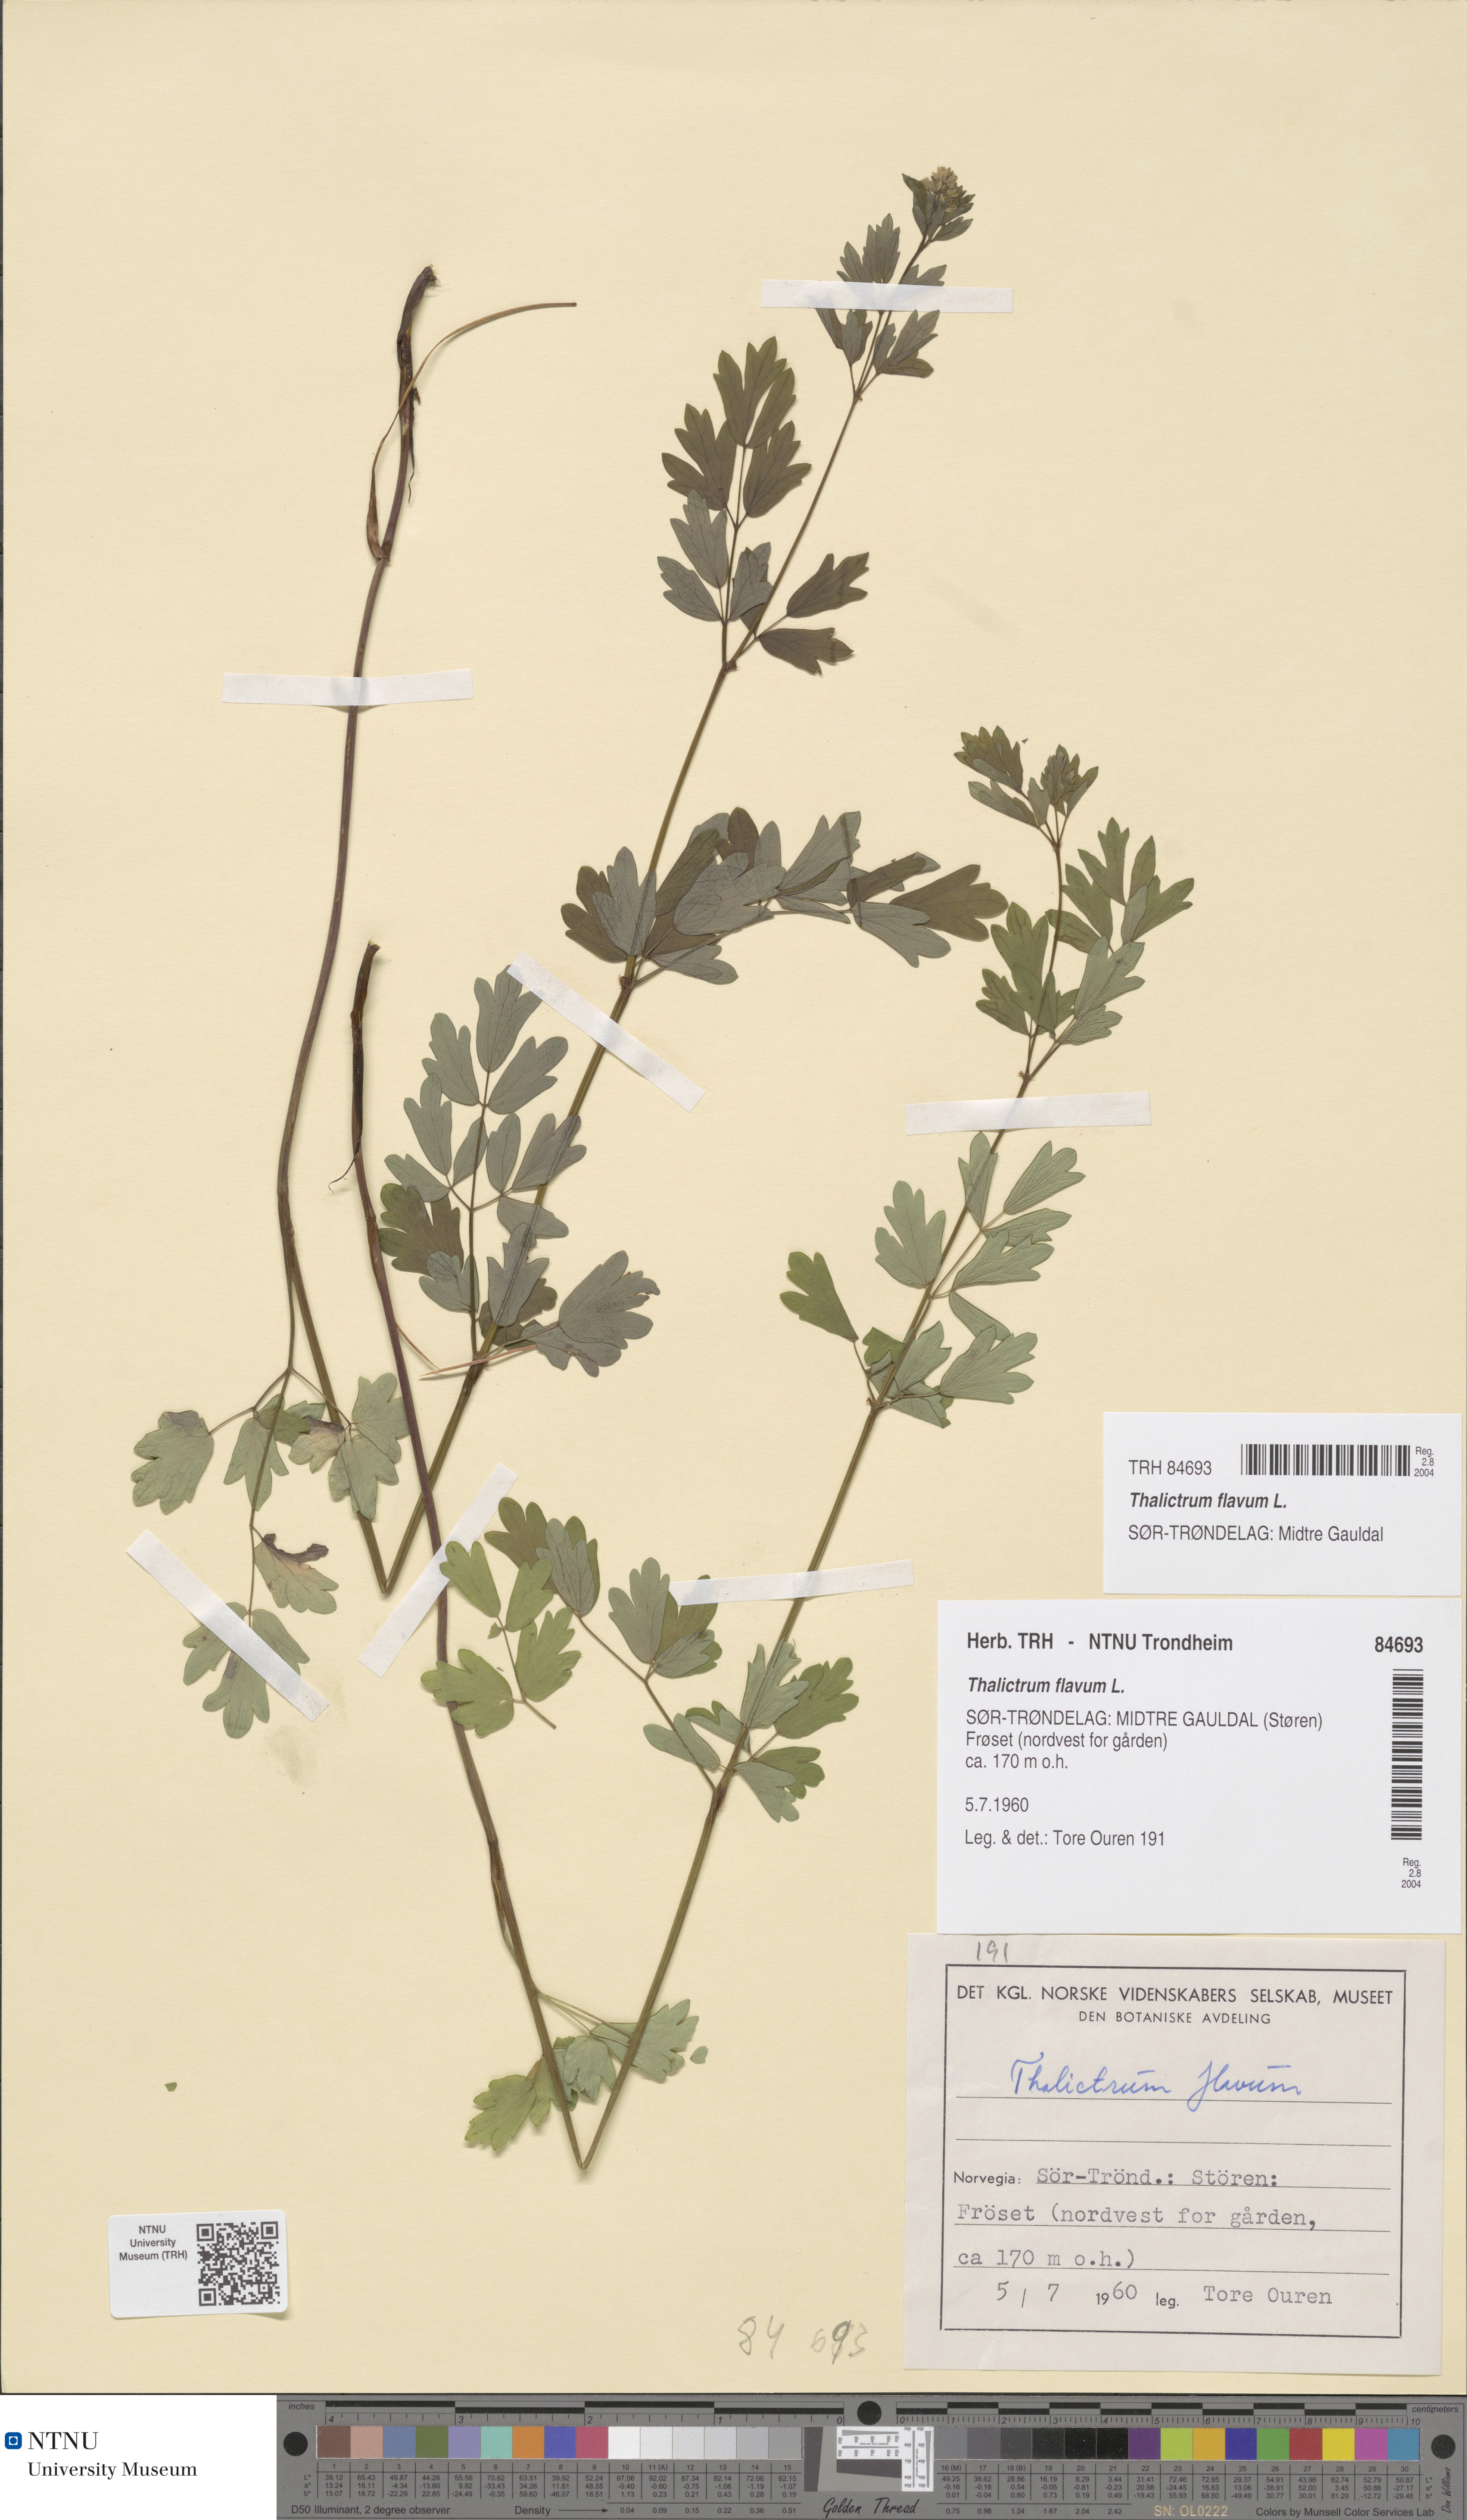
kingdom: Plantae
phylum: Tracheophyta
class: Magnoliopsida
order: Ranunculales
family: Ranunculaceae
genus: Thalictrum
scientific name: Thalictrum flavum
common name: Common meadow-rue
